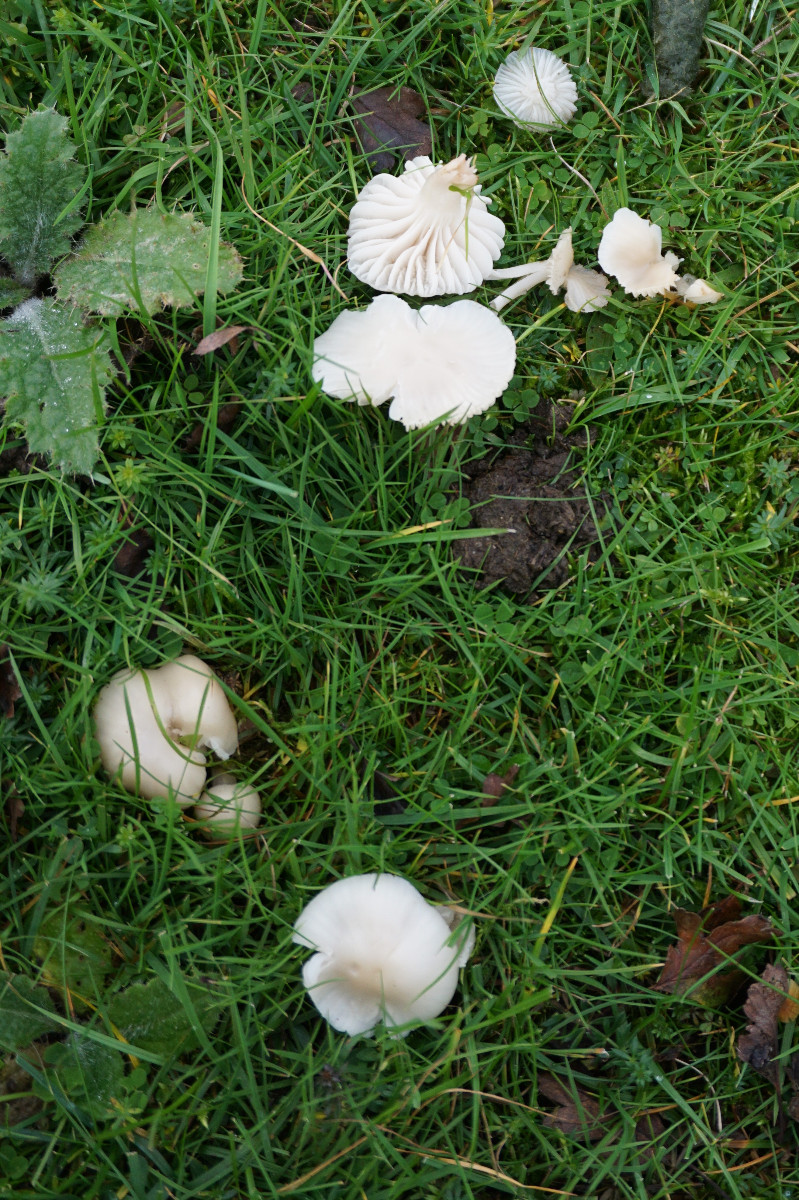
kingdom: Fungi
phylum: Basidiomycota
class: Agaricomycetes
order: Agaricales
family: Hygrophoraceae
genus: Cuphophyllus
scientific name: Cuphophyllus virgineus
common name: snehvid vokshat
